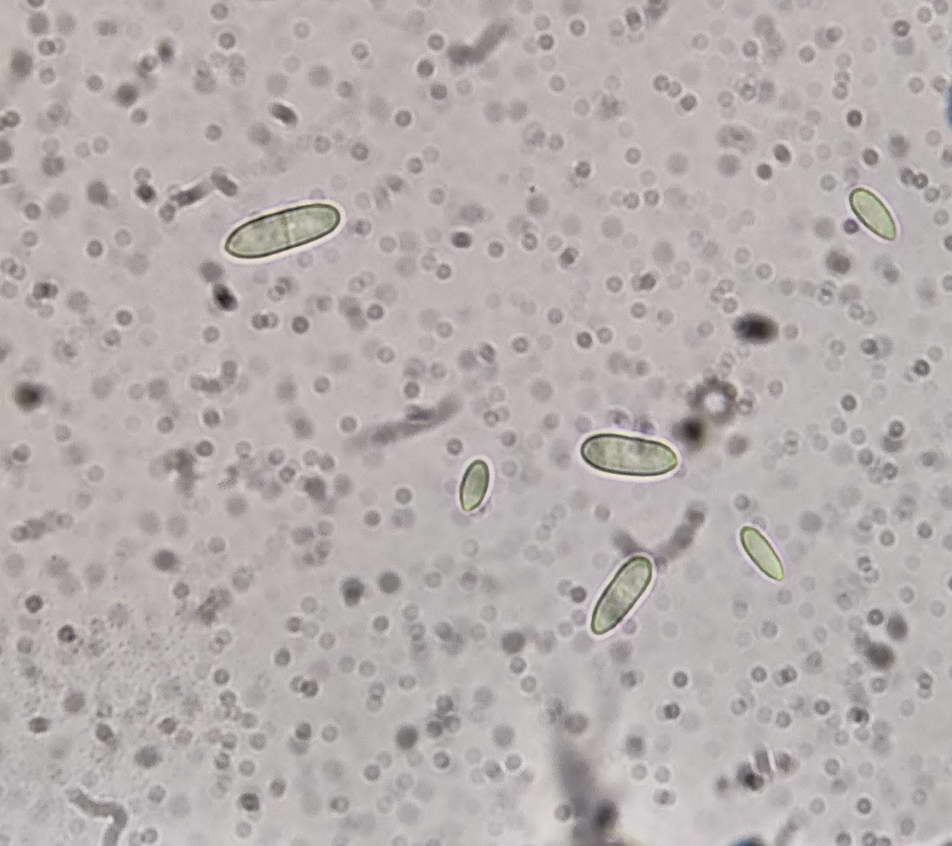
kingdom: Fungi
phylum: Ascomycota
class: Sordariomycetes
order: Hypocreales
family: Hypocreaceae
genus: Mycogone
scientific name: Mycogone rosea
